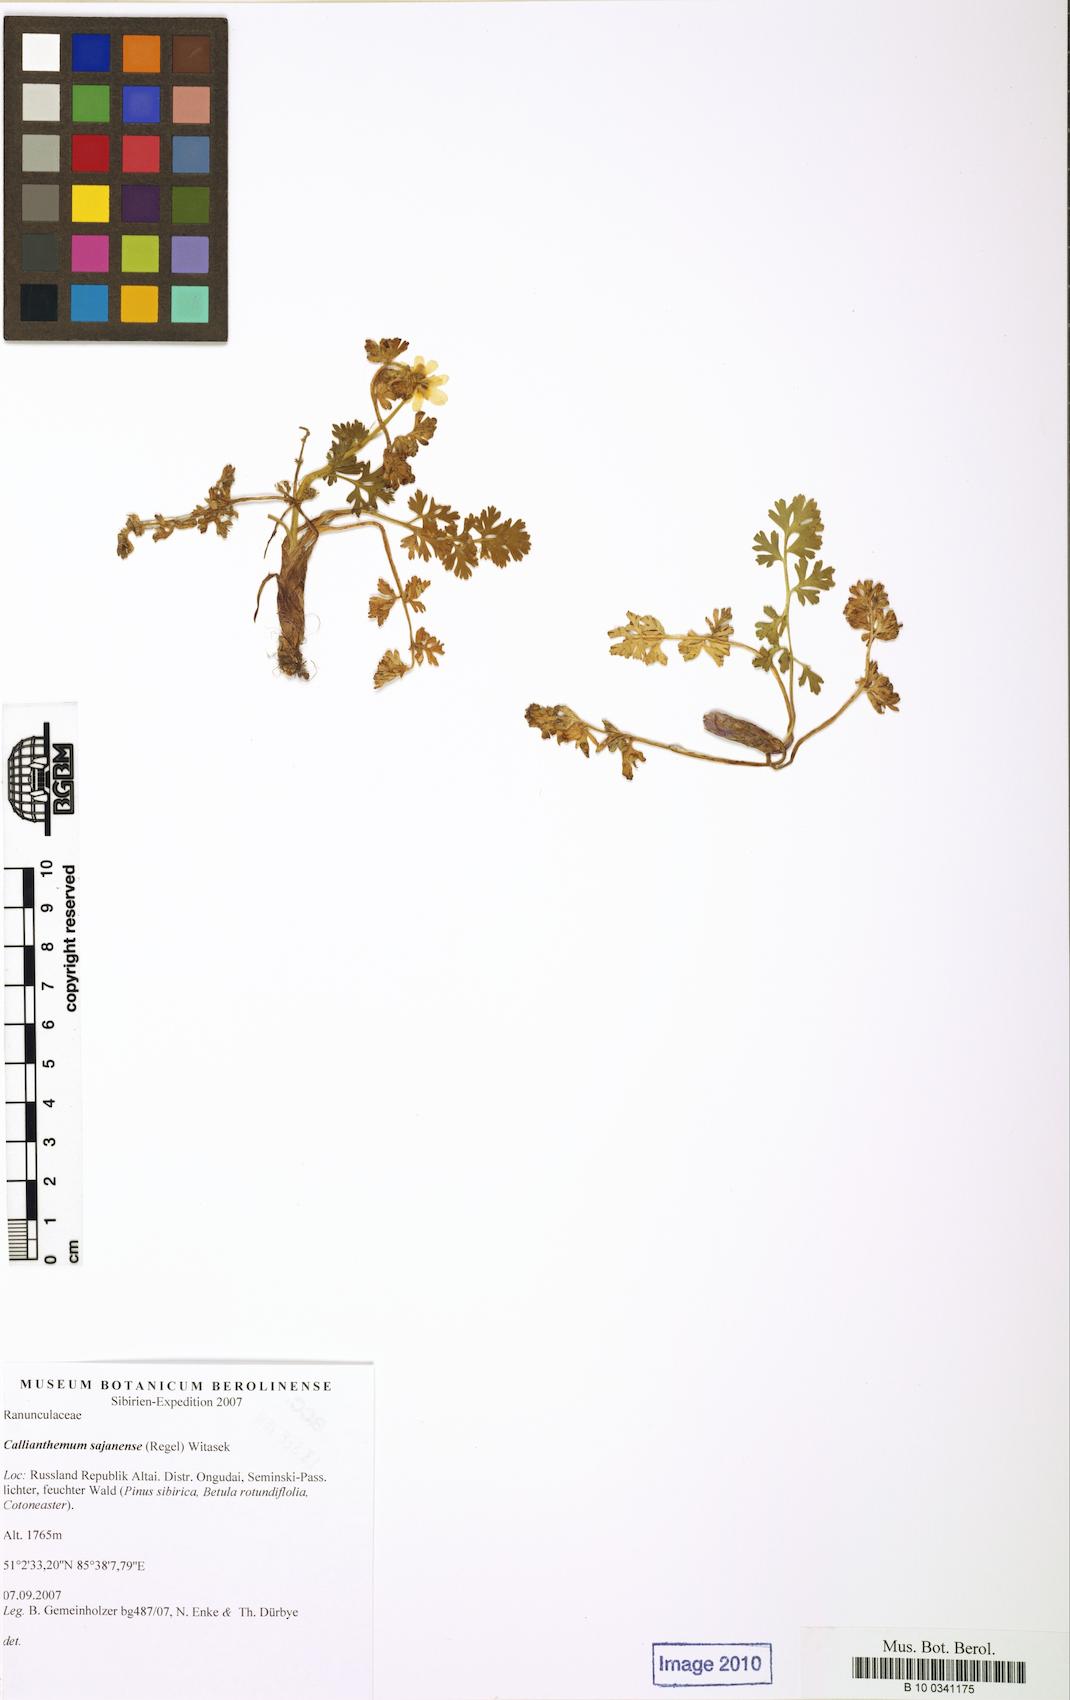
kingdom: Plantae
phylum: Tracheophyta
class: Magnoliopsida
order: Ranunculales
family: Ranunculaceae
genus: Callianthemum
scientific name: Callianthemum sajanense
